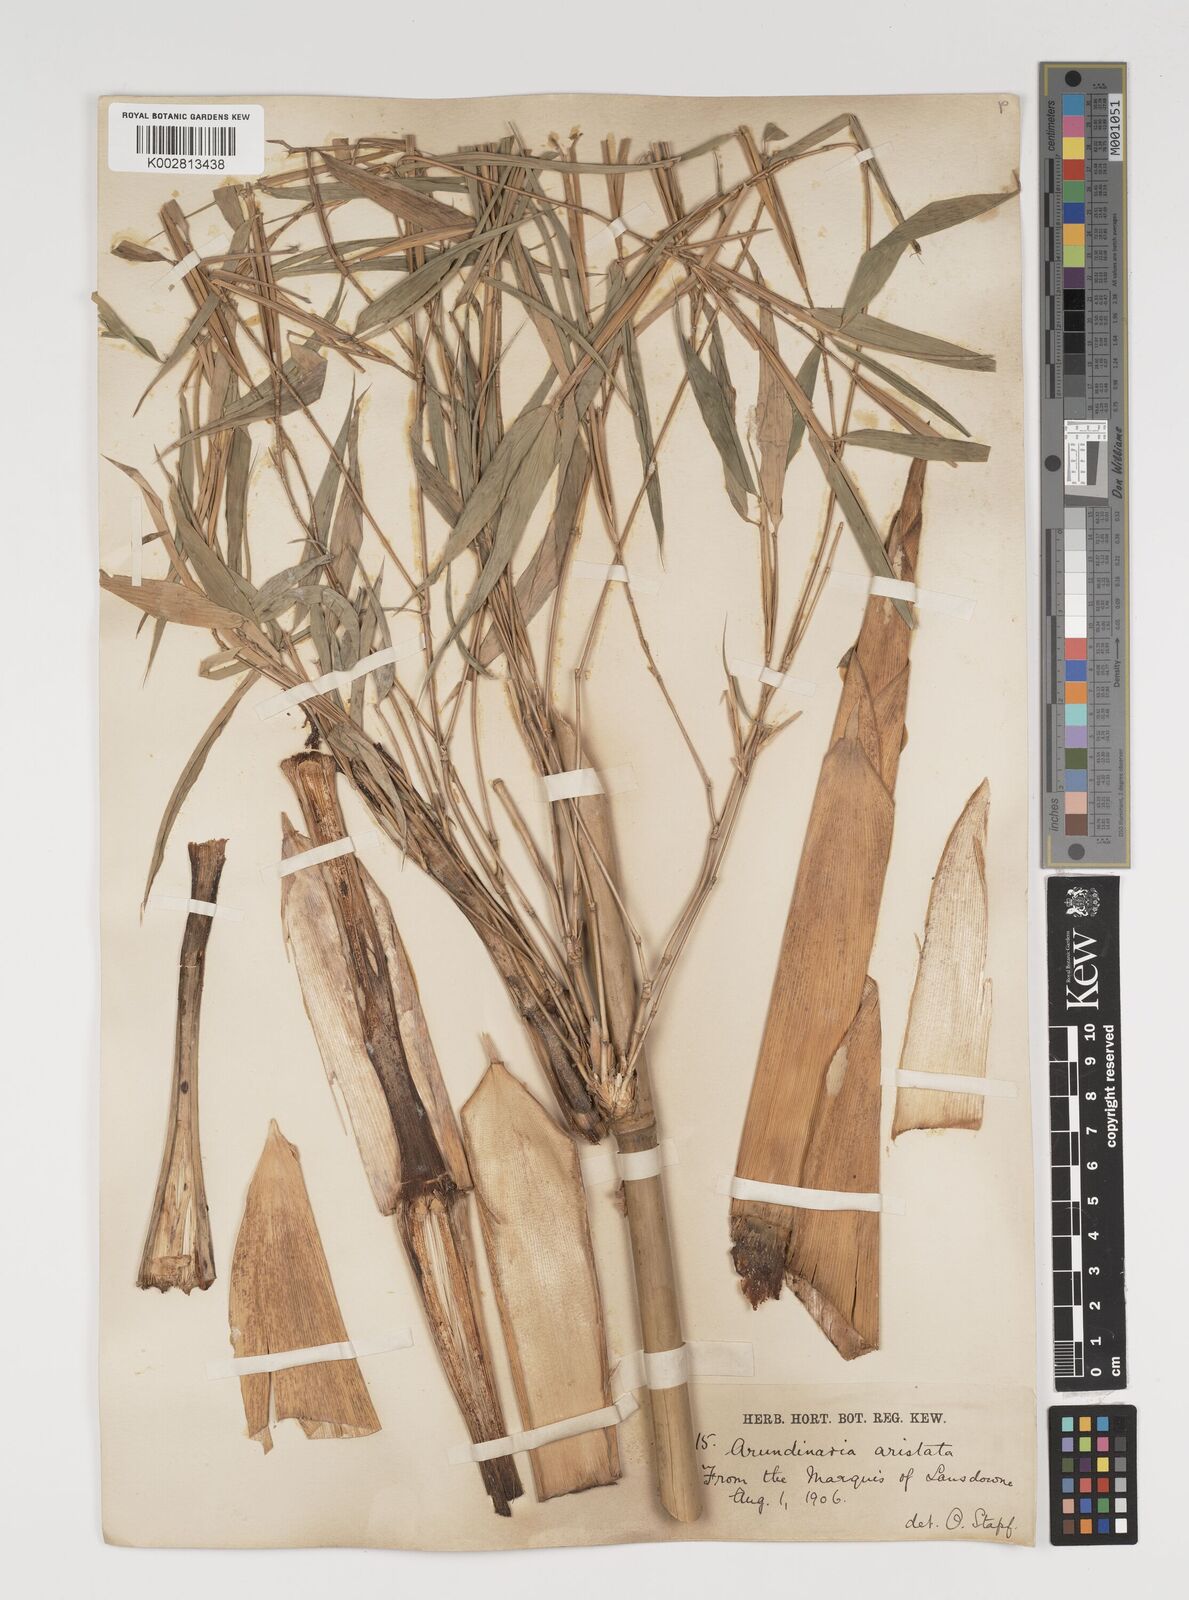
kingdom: Plantae
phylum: Tracheophyta
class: Liliopsida
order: Poales
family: Poaceae
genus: Thamnocalamus
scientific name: Thamnocalamus spathiflorus
